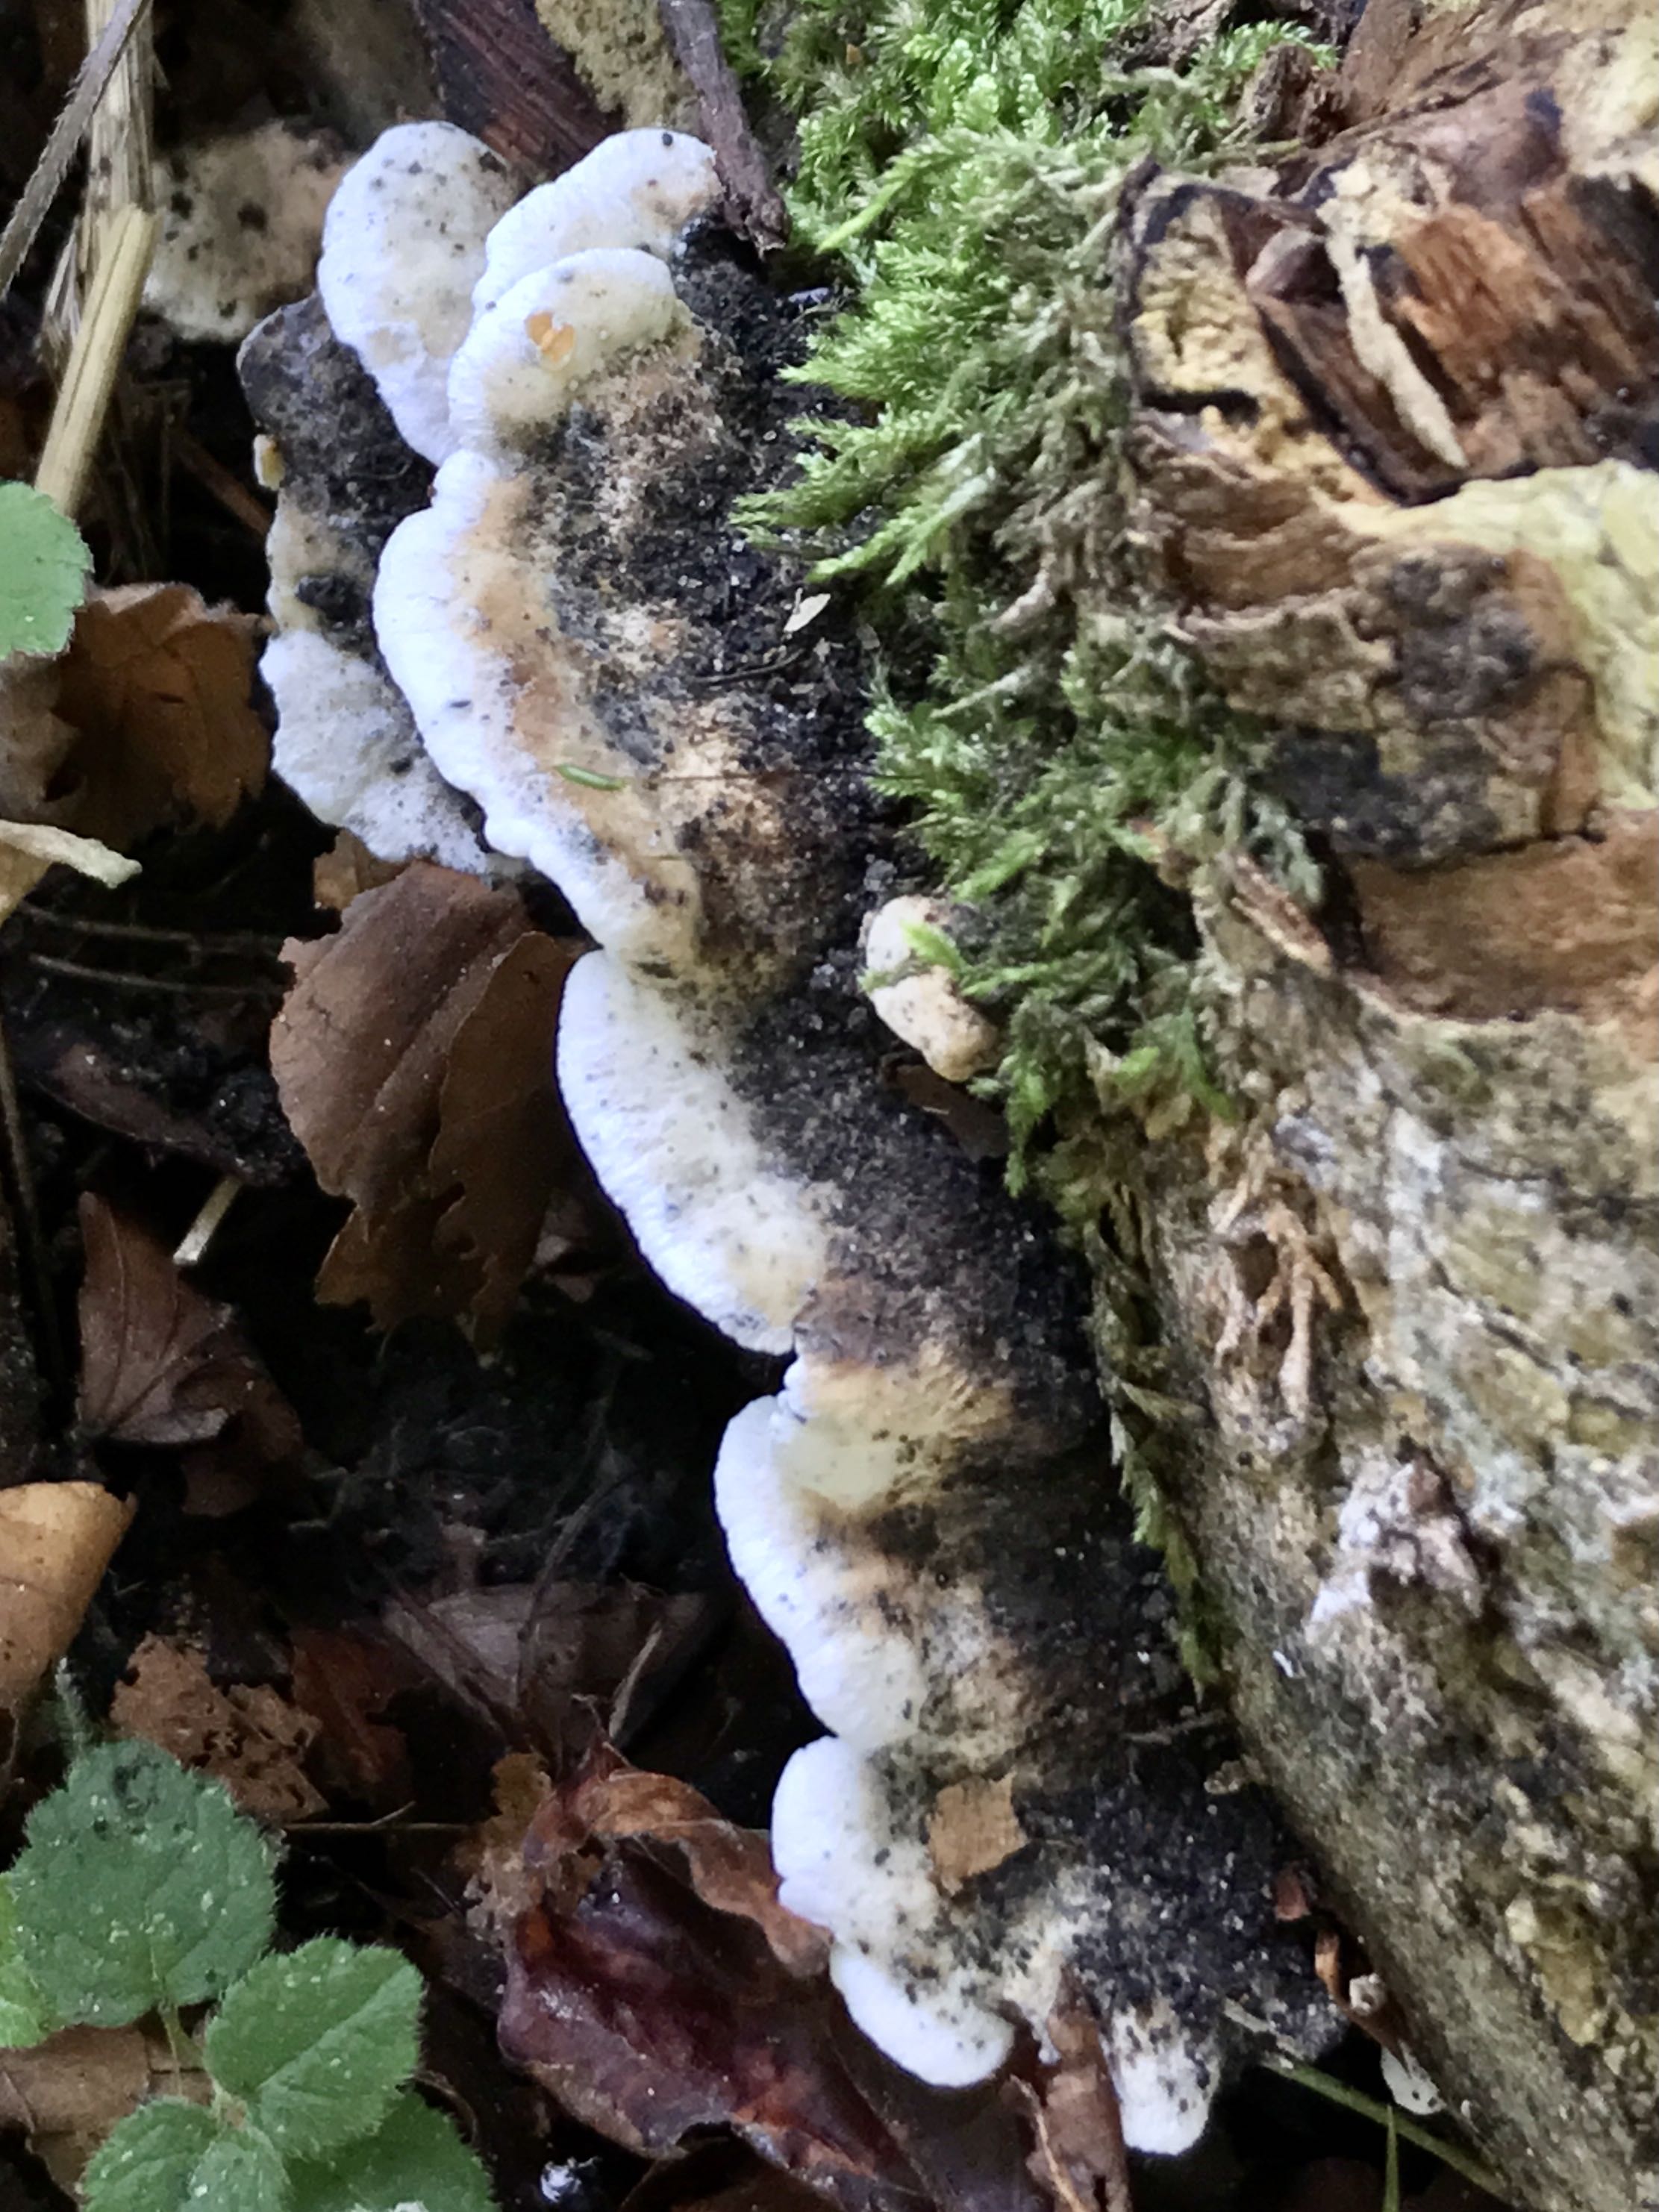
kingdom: Fungi
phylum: Basidiomycota
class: Agaricomycetes
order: Polyporales
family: Incrustoporiaceae
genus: Skeletocutis
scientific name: Skeletocutis nemoralis
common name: stor krystalporesvamp
